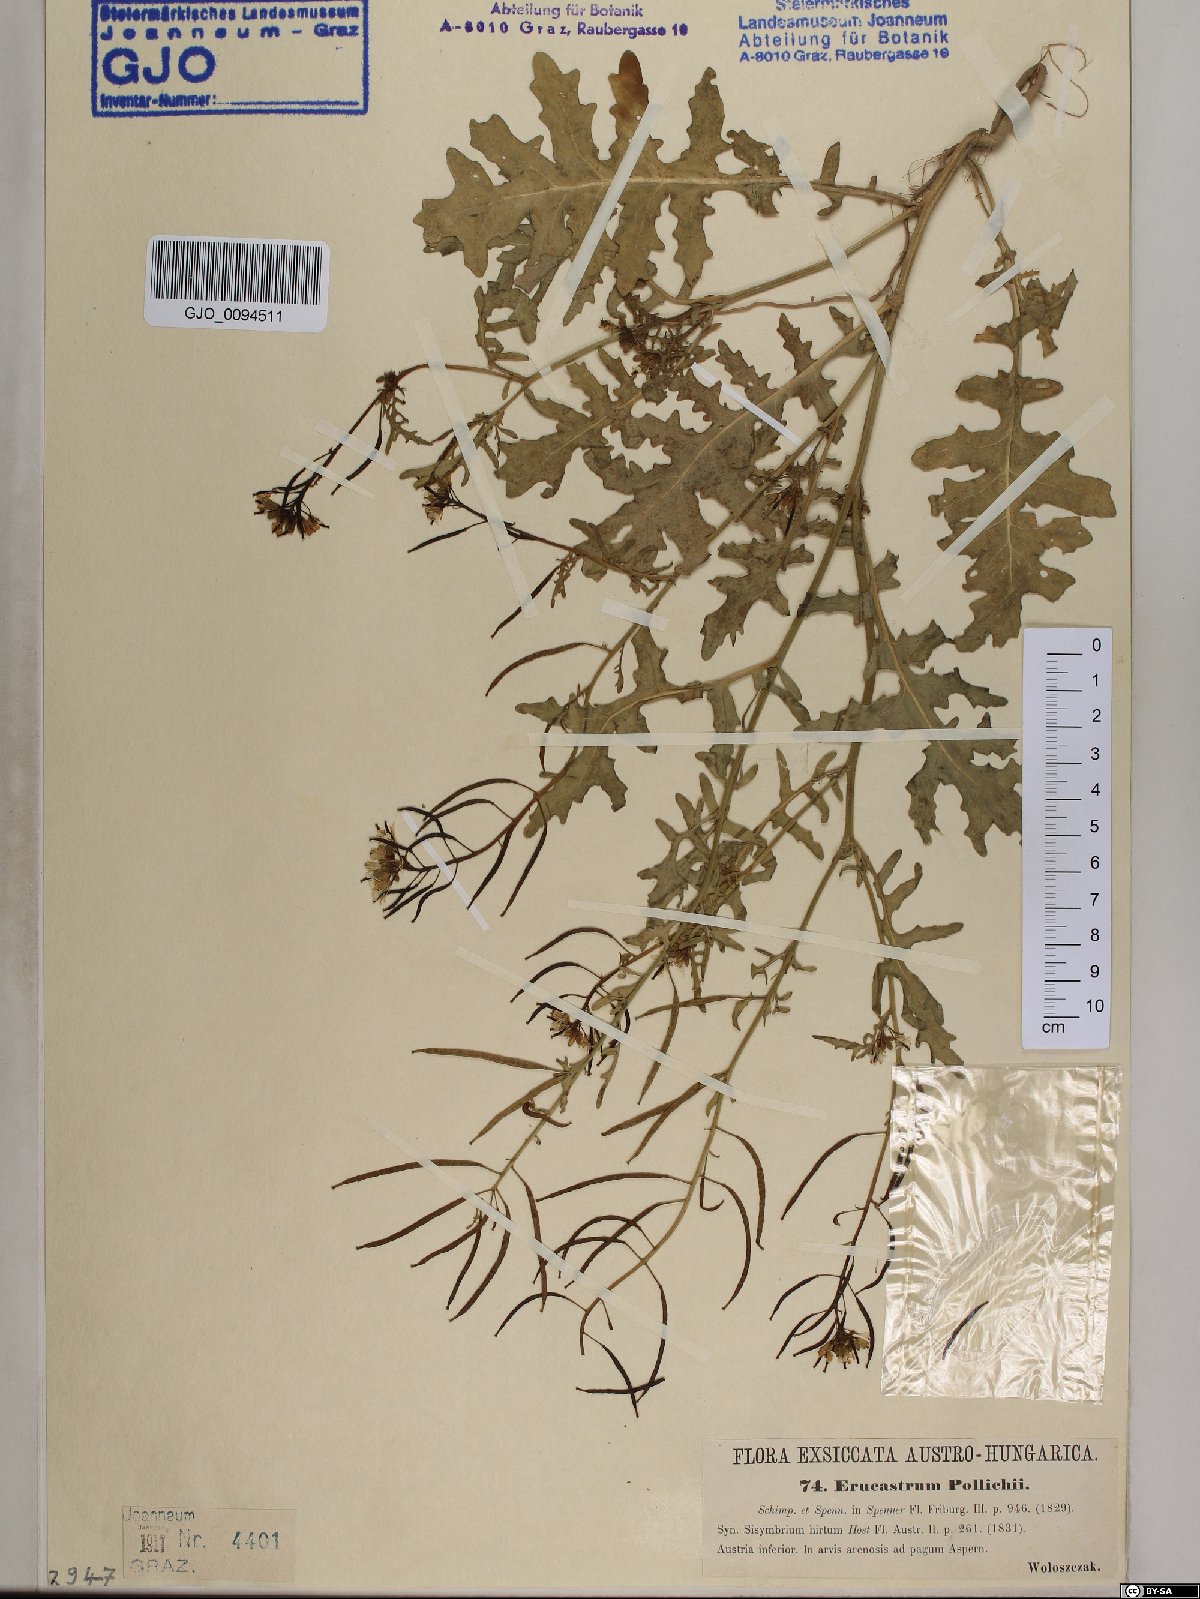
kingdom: Plantae
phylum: Tracheophyta
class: Magnoliopsida
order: Brassicales
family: Brassicaceae
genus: Erucastrum
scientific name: Erucastrum gallicum
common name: Hairy rocket
